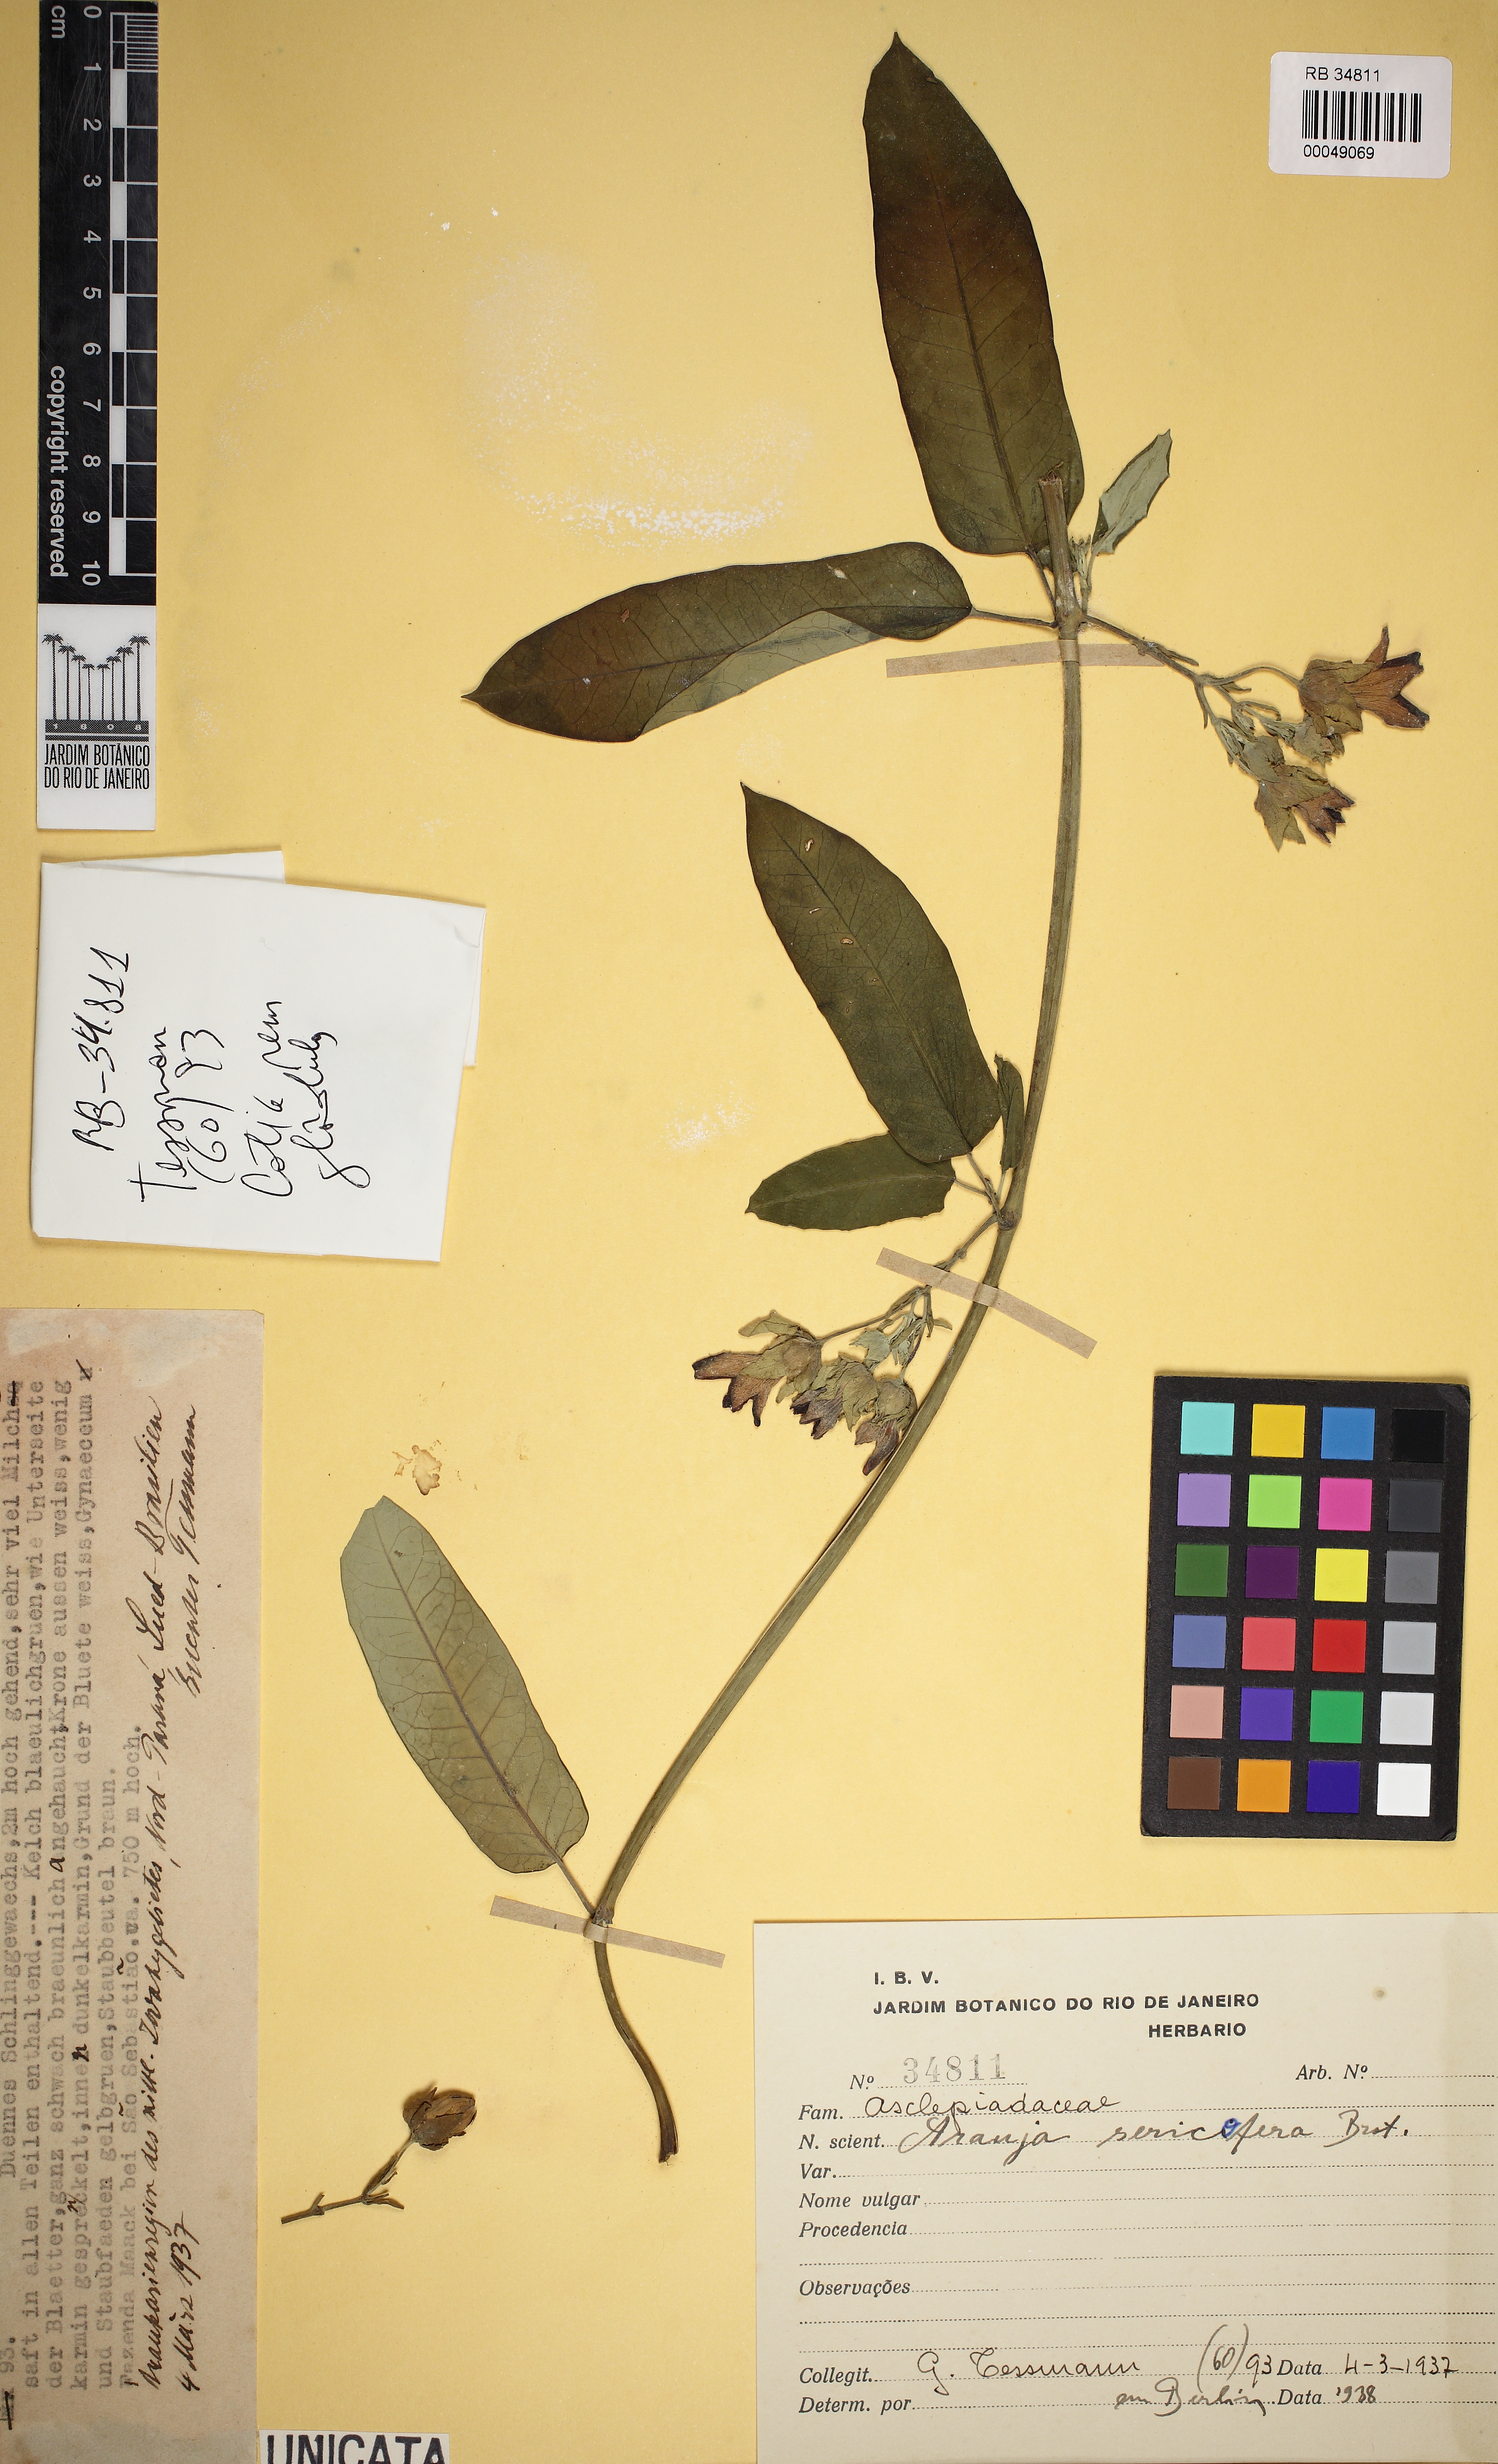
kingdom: Plantae
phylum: Tracheophyta
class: Magnoliopsida
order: Gentianales
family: Apocynaceae
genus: Araujia
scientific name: Araujia sericifera
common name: White bladderflower
